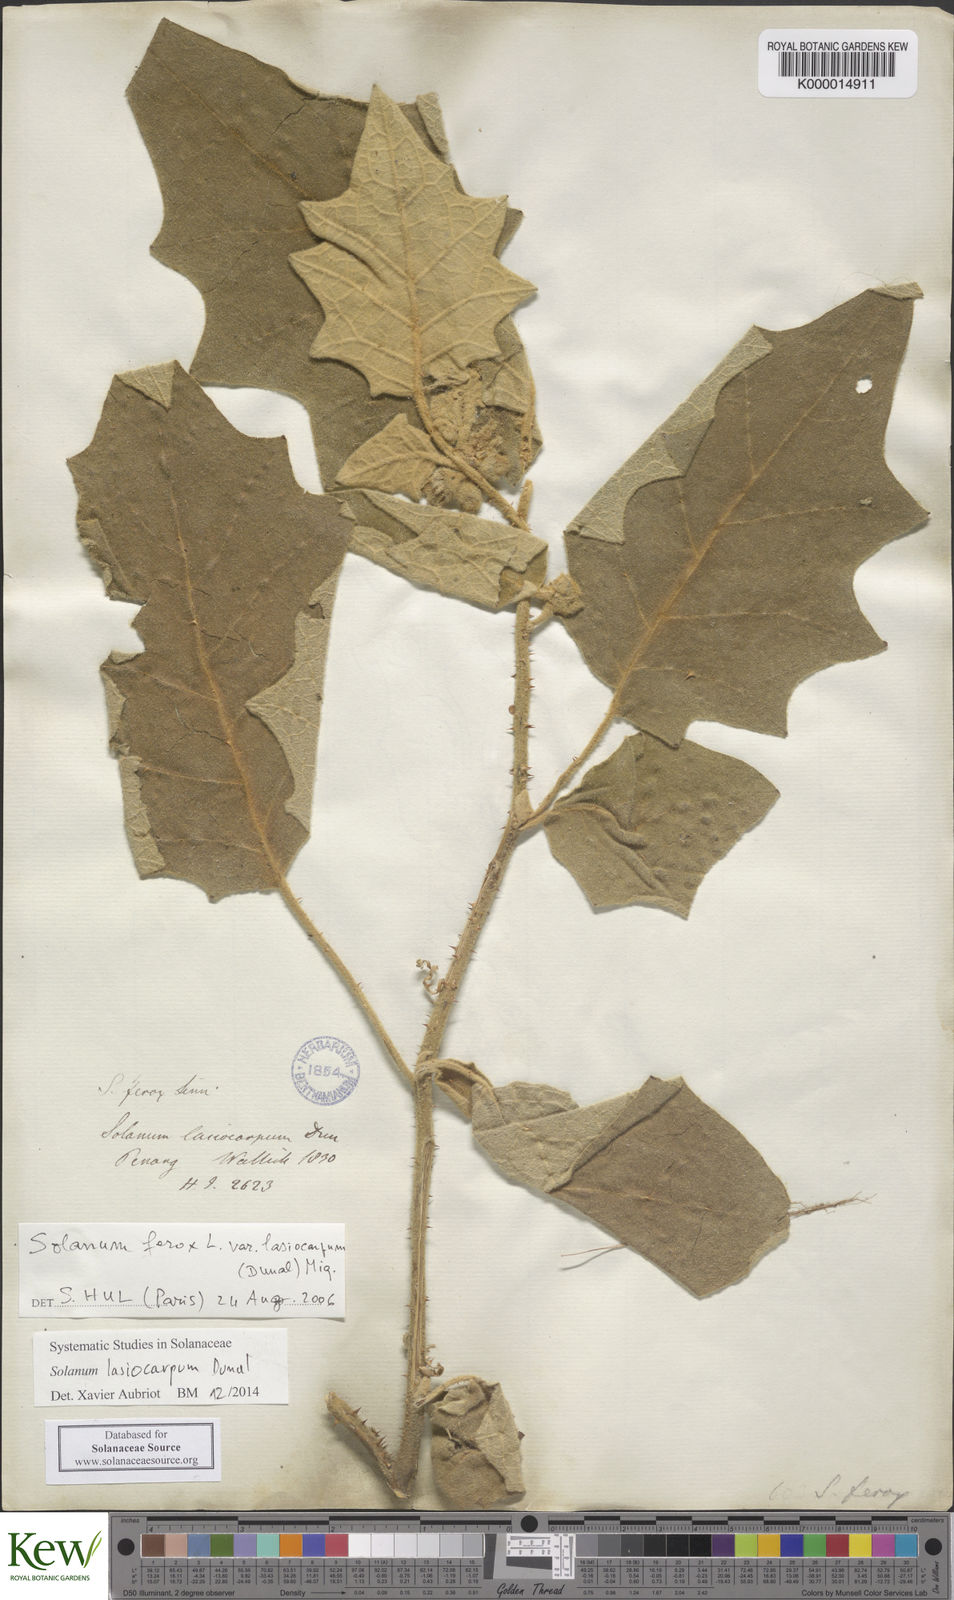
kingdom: Plantae
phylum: Tracheophyta
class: Magnoliopsida
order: Solanales
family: Solanaceae
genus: Solanum
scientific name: Solanum lasiocarpum
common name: Indian nightshade
